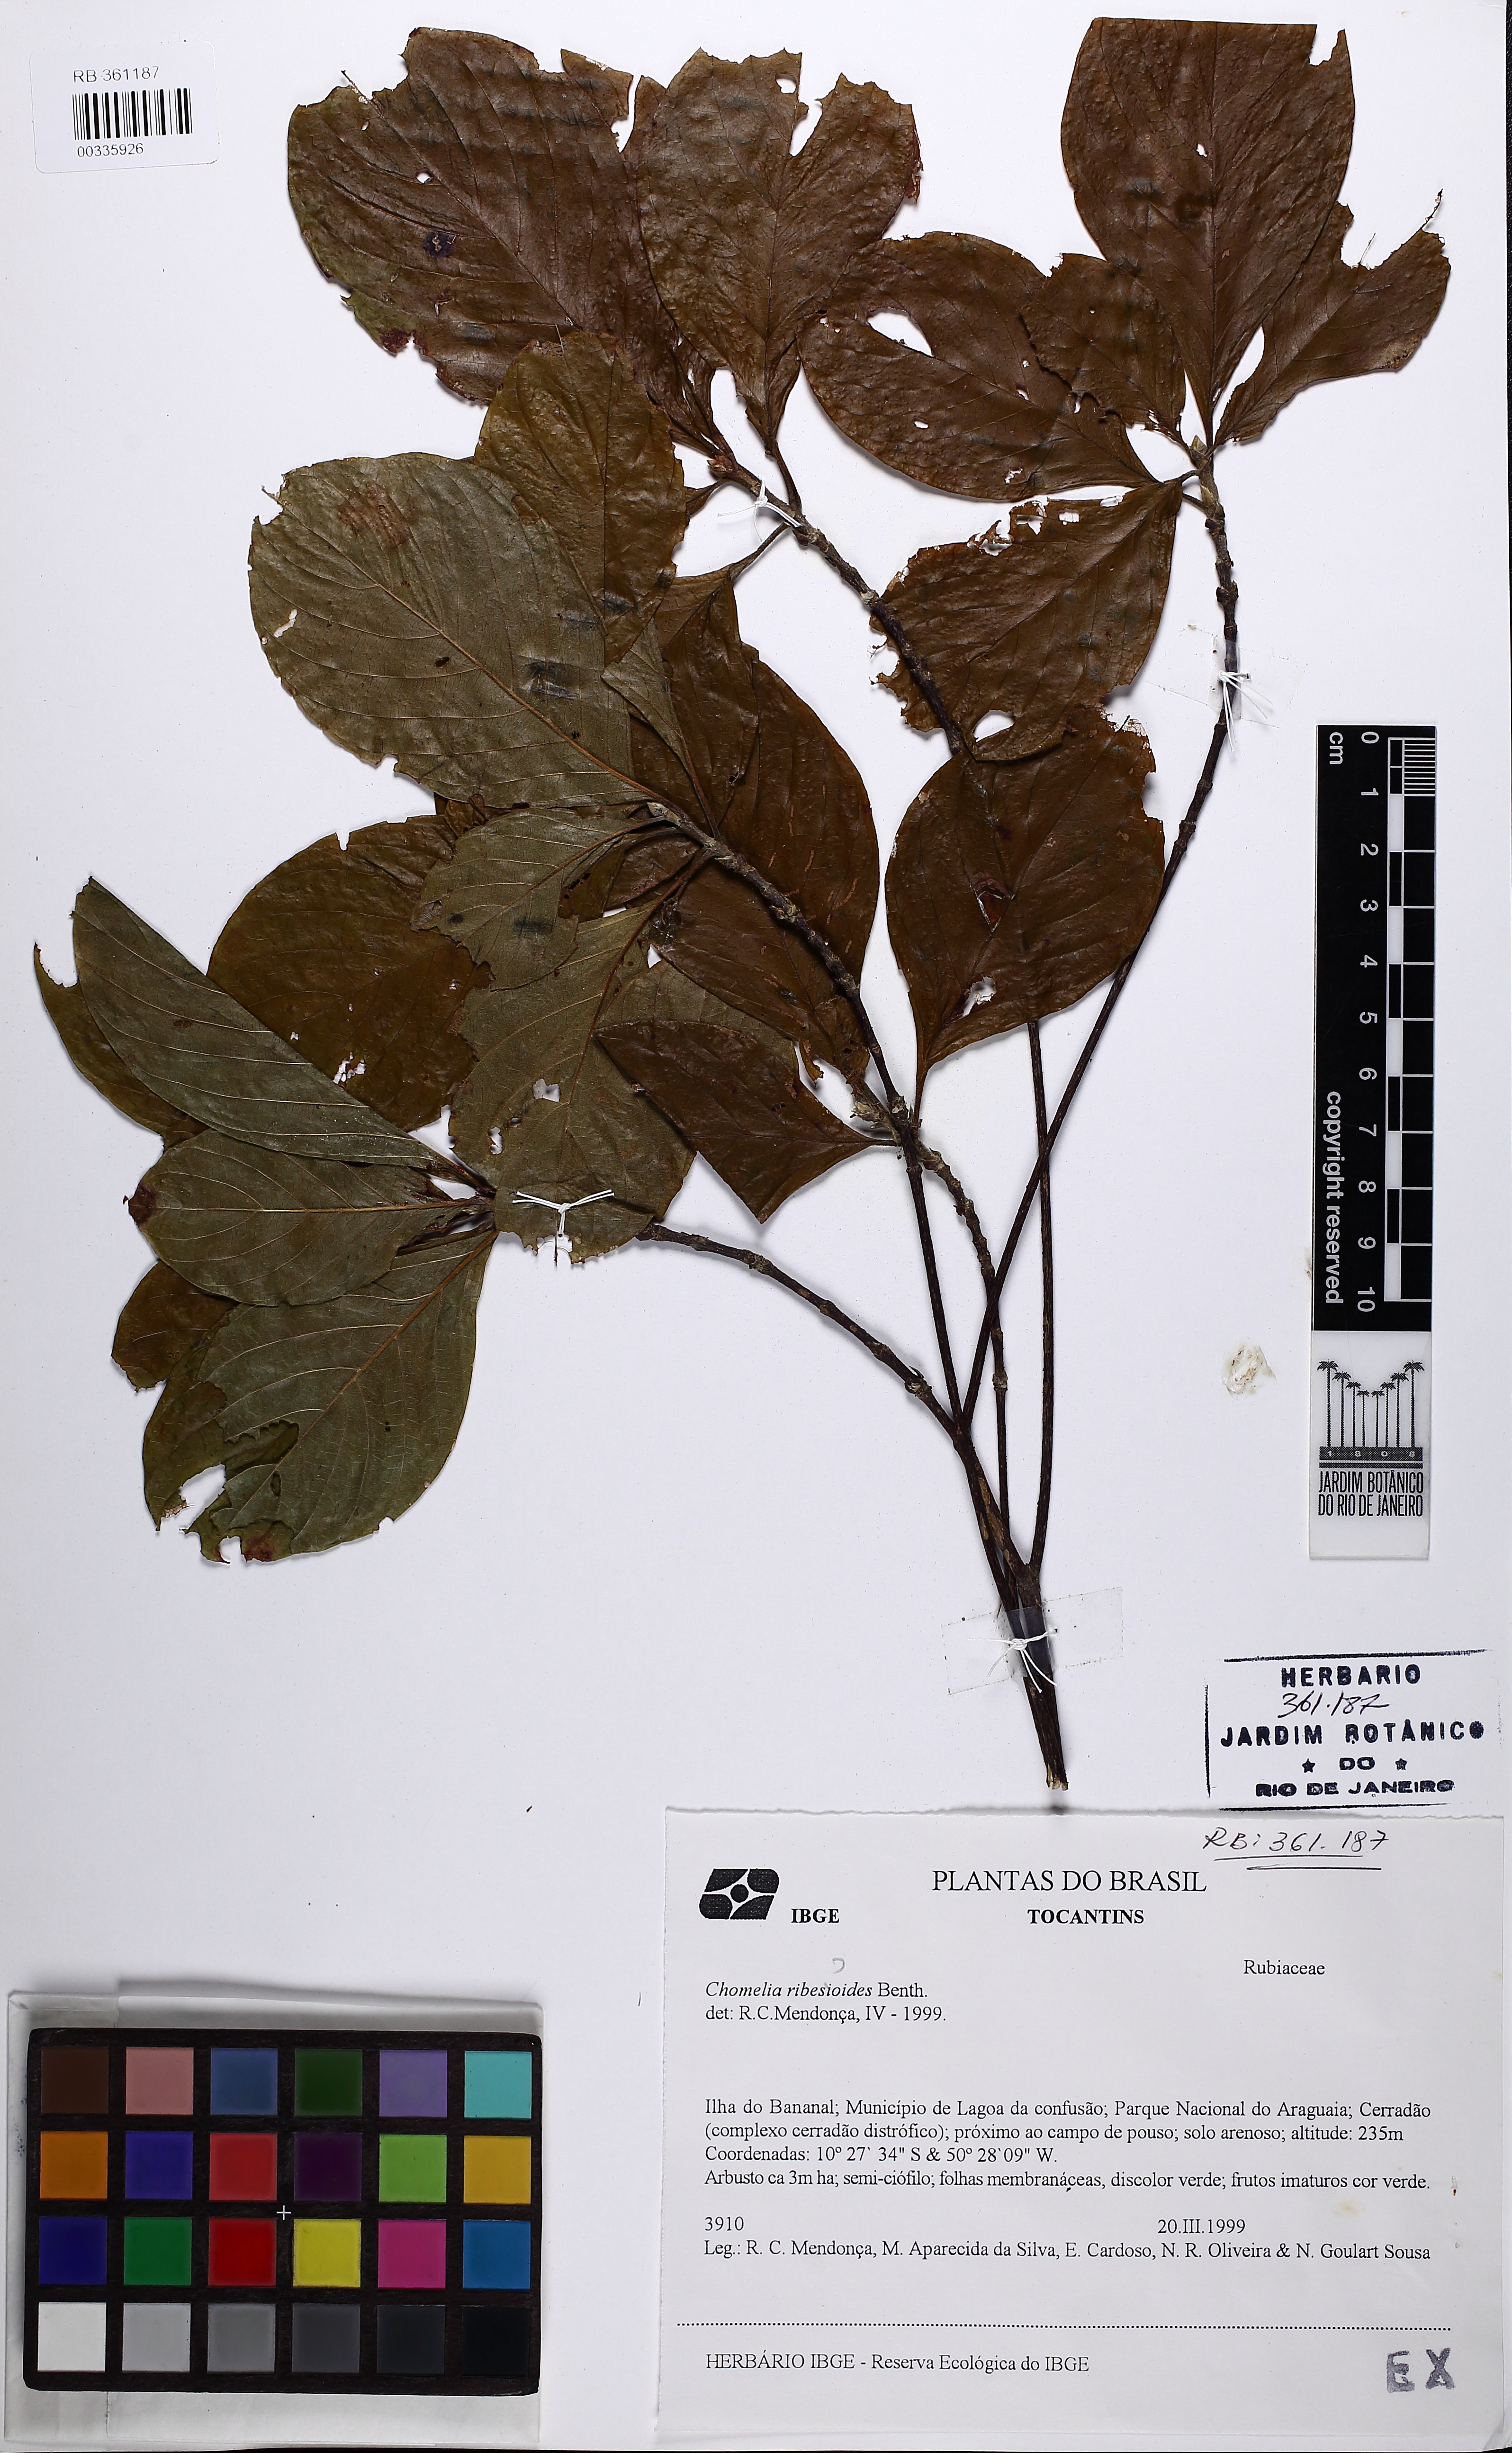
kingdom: Plantae
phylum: Tracheophyta
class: Magnoliopsida
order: Gentianales
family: Rubiaceae
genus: Chomelia
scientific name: Chomelia ribesioides
